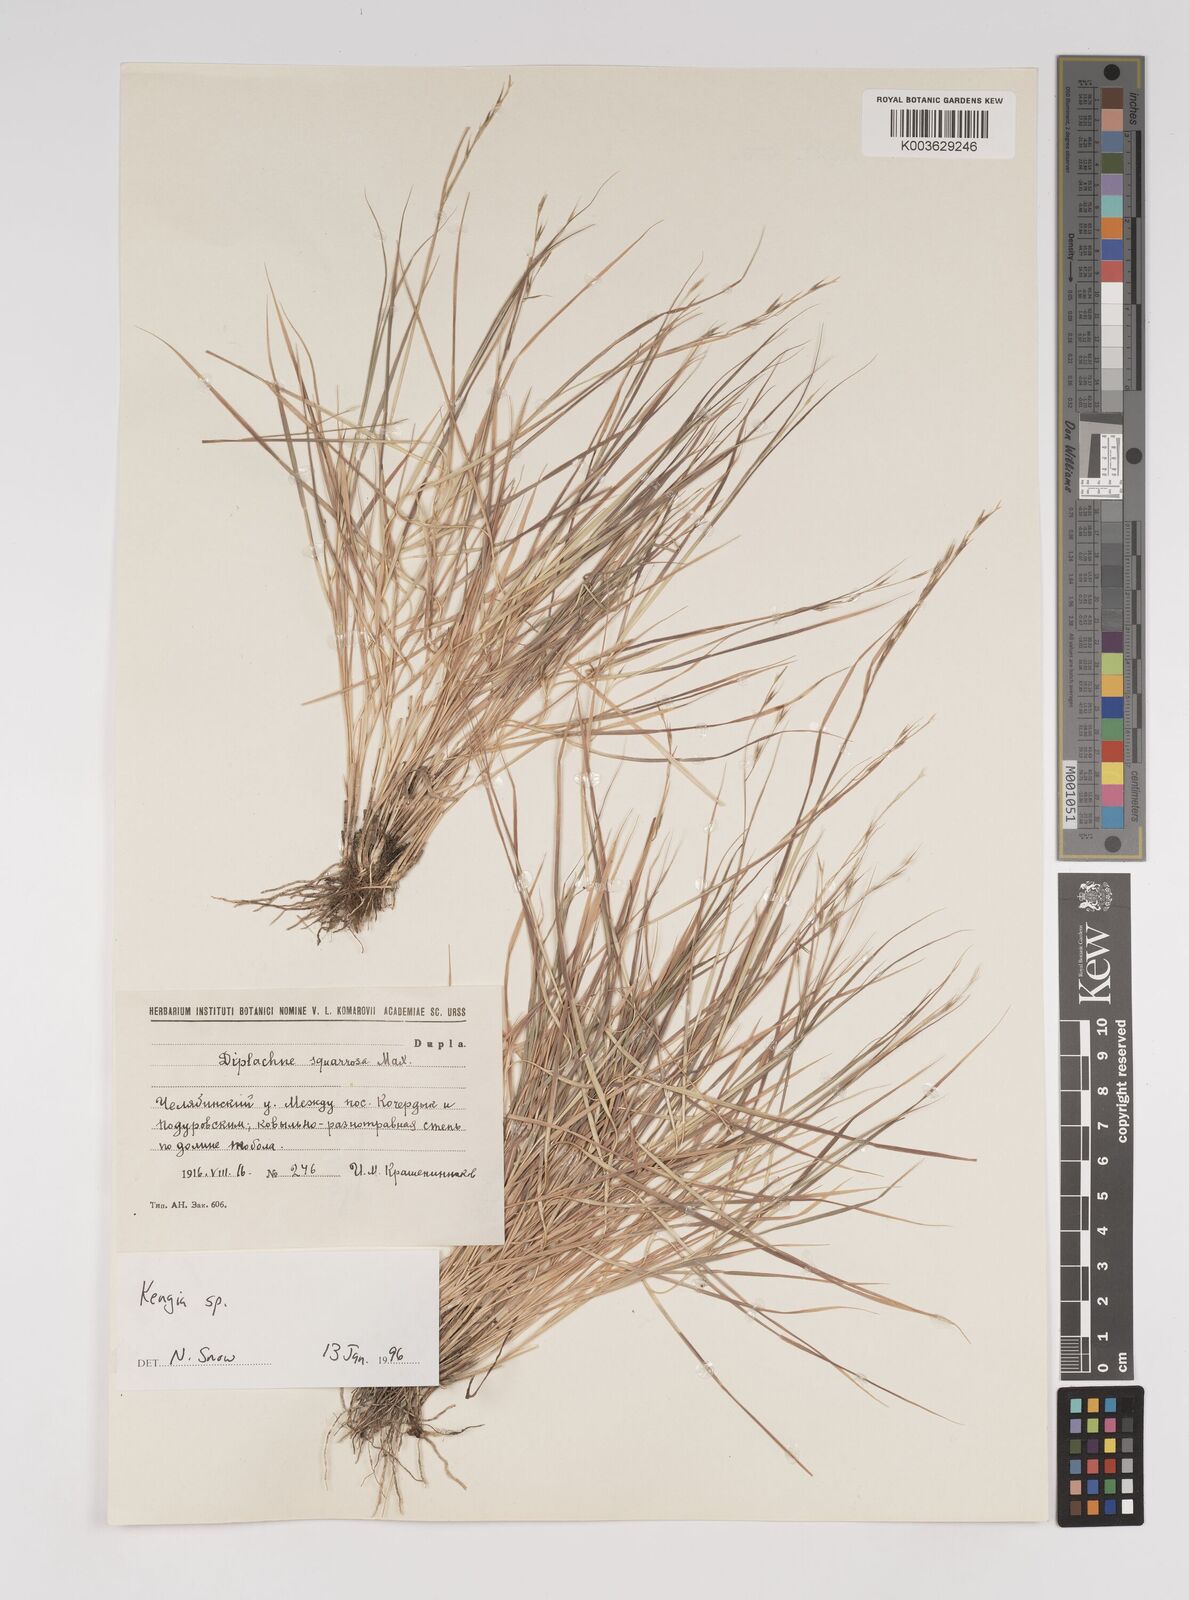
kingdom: Plantae
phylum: Tracheophyta
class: Liliopsida
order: Poales
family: Poaceae
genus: Cleistogenes
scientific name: Cleistogenes squarrosa
